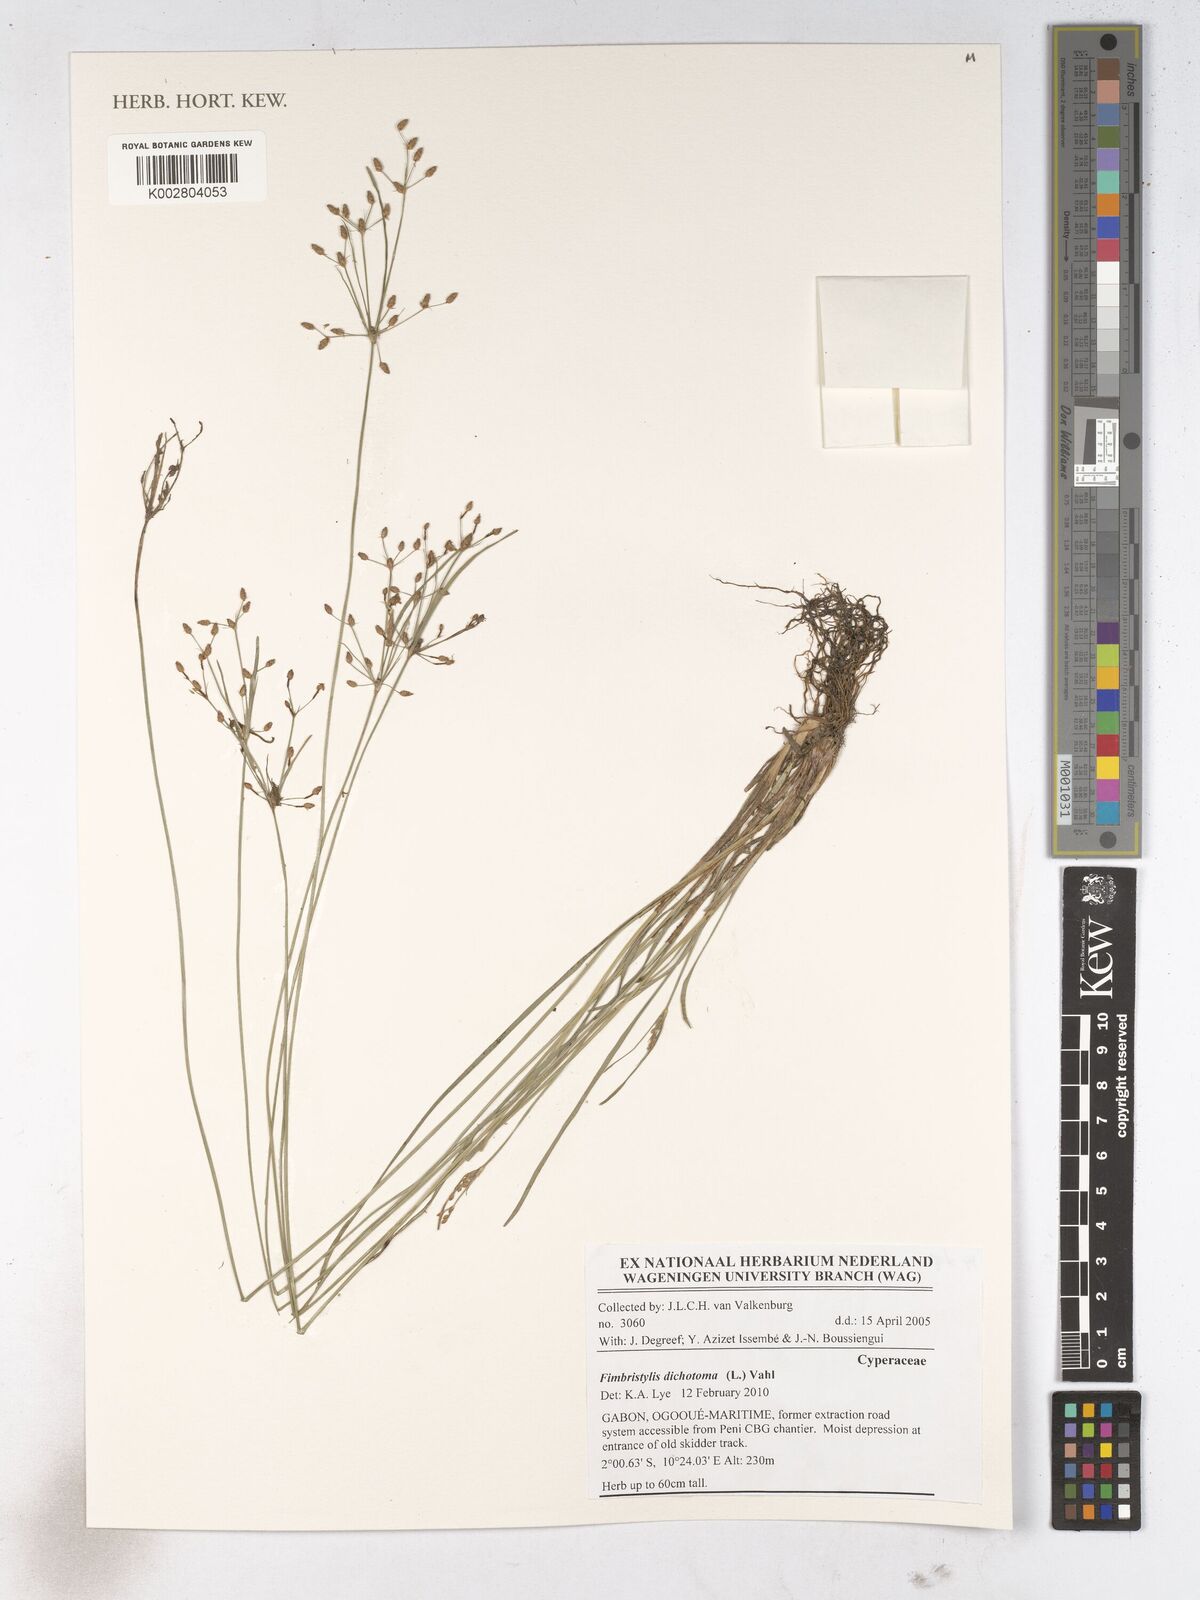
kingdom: Plantae
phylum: Tracheophyta
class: Liliopsida
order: Poales
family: Cyperaceae
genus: Fimbristylis
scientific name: Fimbristylis dichotoma
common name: Forked fimbry
